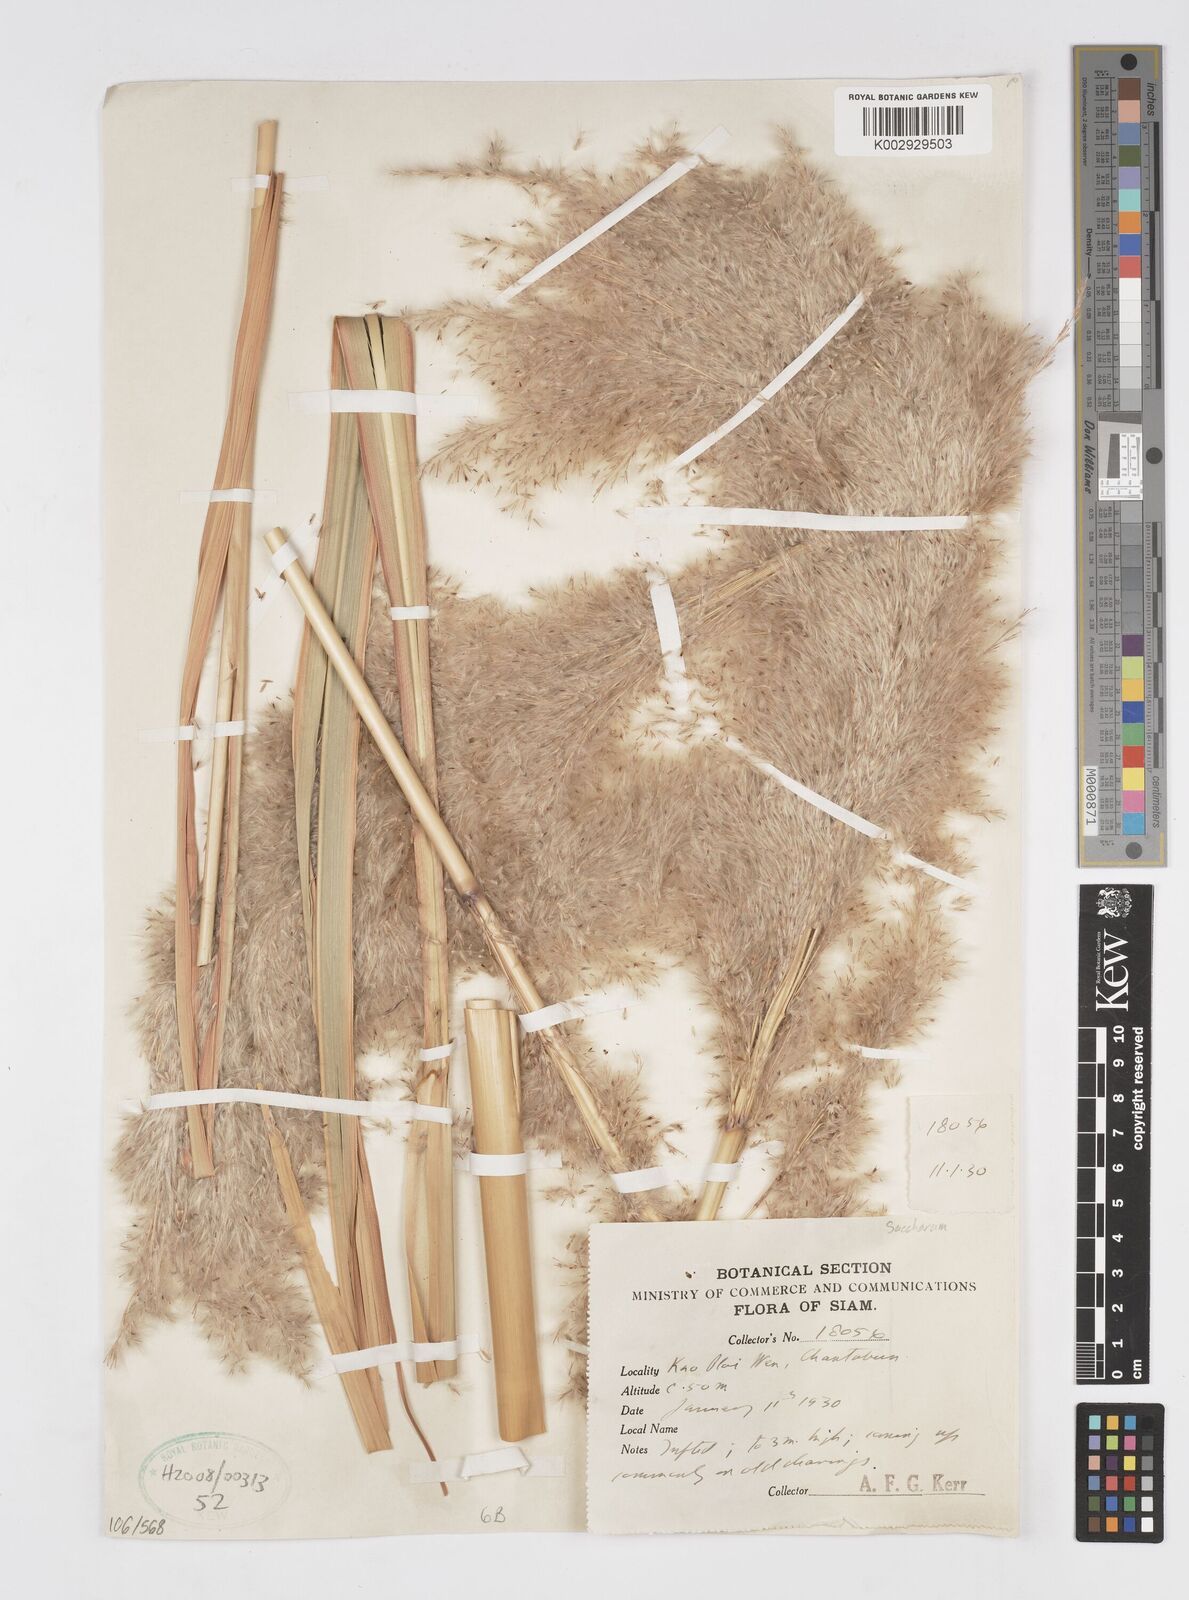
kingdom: Plantae
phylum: Tracheophyta
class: Liliopsida
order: Poales
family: Poaceae
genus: Saccharum
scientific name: Saccharum
